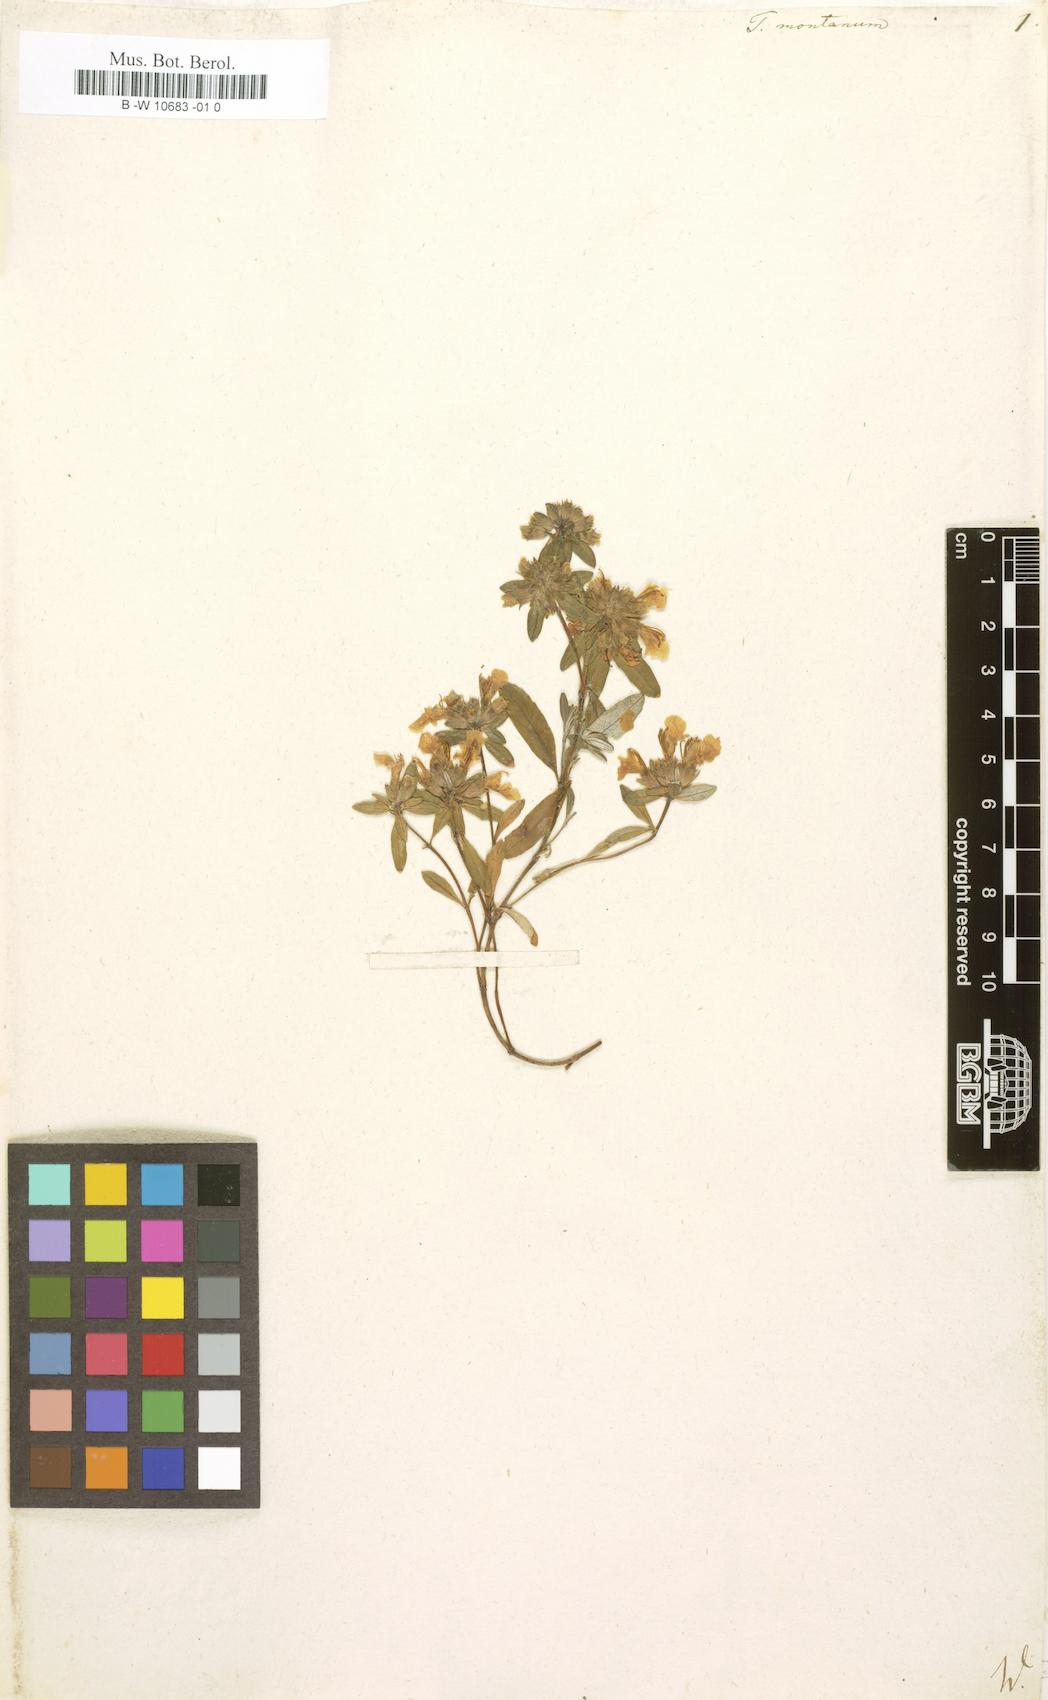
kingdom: Plantae
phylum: Tracheophyta
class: Magnoliopsida
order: Lamiales
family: Lamiaceae
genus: Teucrium
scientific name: Teucrium montanum
